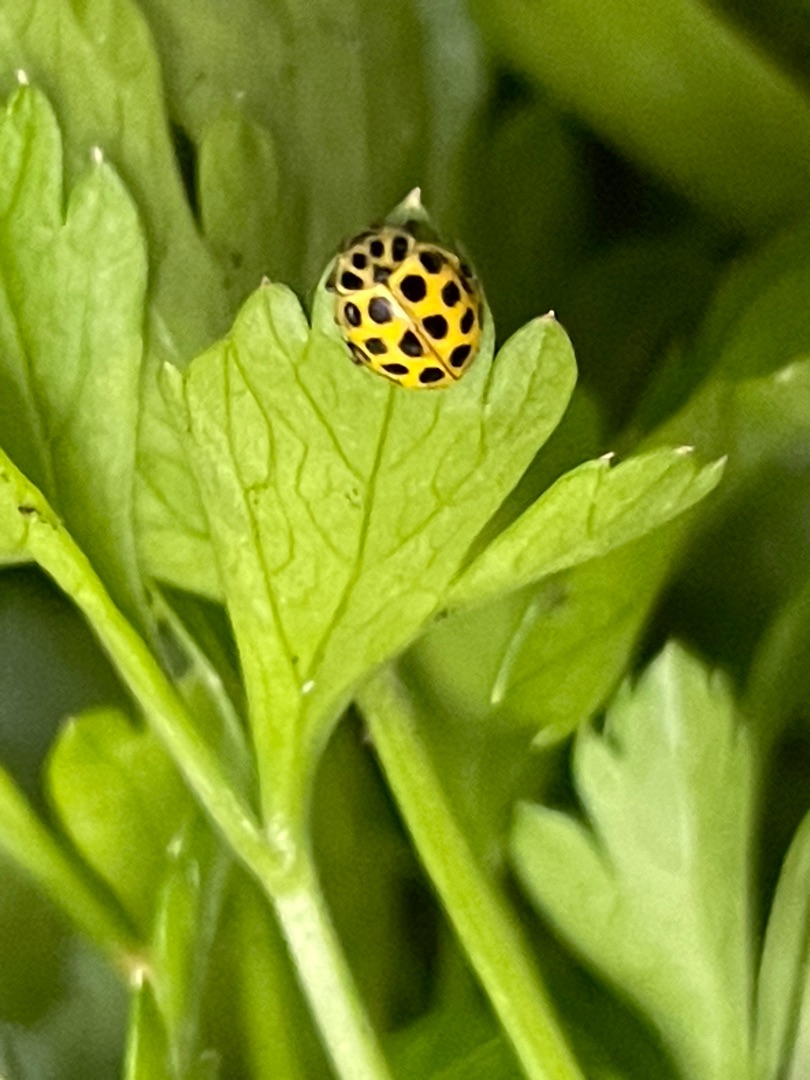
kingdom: Animalia
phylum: Arthropoda
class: Insecta
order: Coleoptera
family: Coccinellidae
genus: Psyllobora
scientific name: Psyllobora vigintiduopunctata
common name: Toogtyveplettet mariehøne
